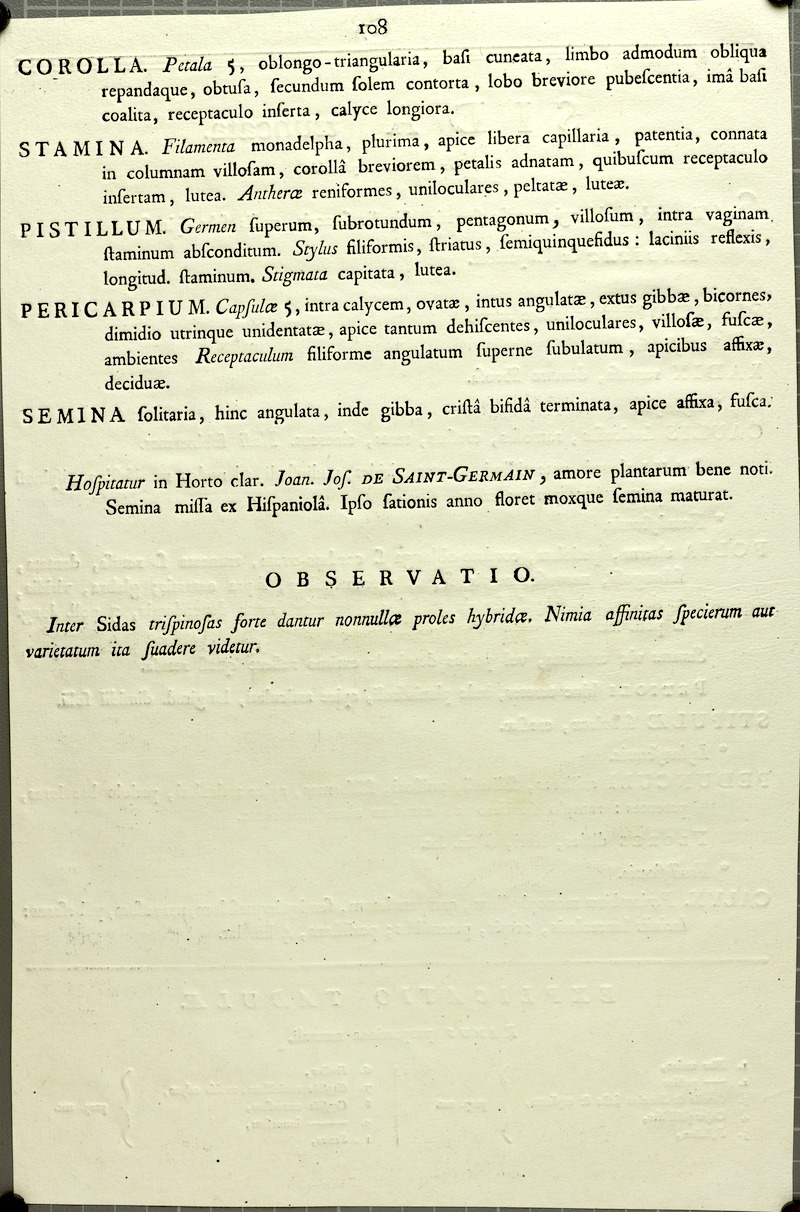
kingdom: Plantae
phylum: Tracheophyta
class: Magnoliopsida
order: Malvales
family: Malvaceae
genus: Sida
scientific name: Sida spinosa
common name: Prickly fanpetals
